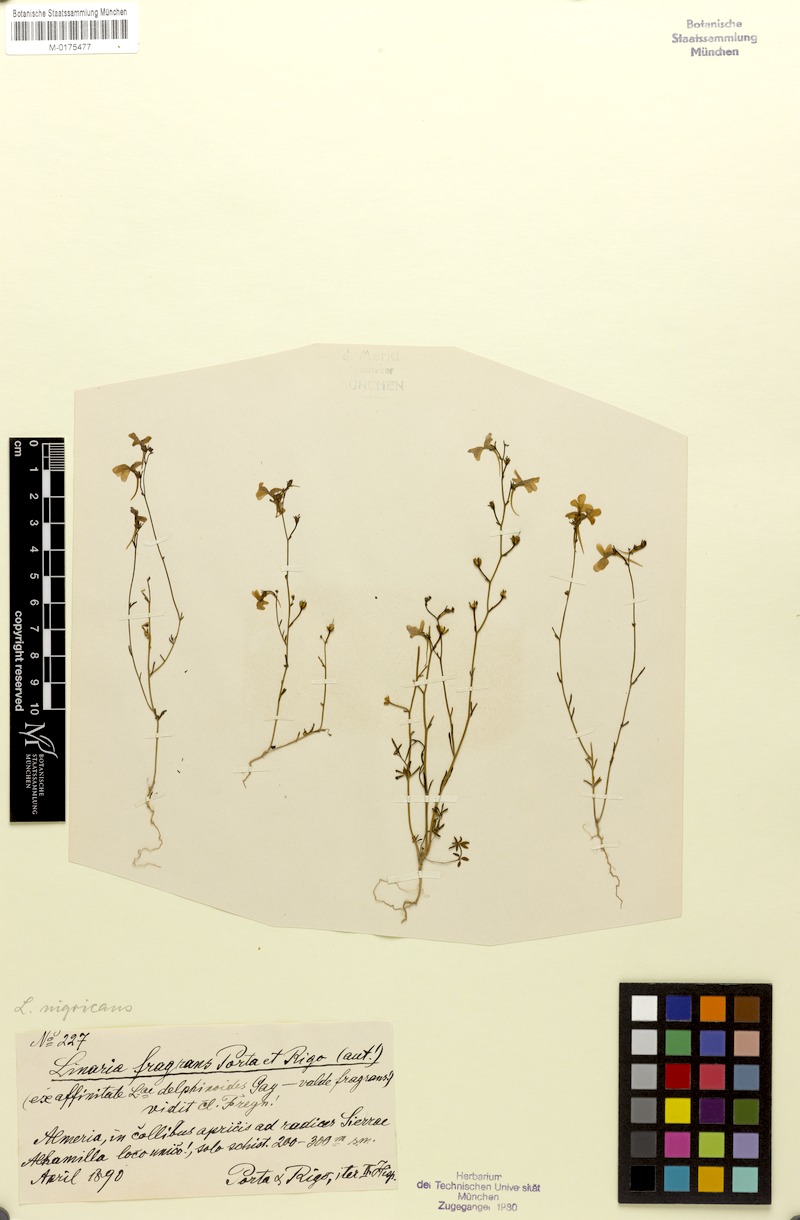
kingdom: Plantae
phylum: Tracheophyta
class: Magnoliopsida
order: Lamiales
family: Plantaginaceae
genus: Linaria
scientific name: Linaria nigricans
